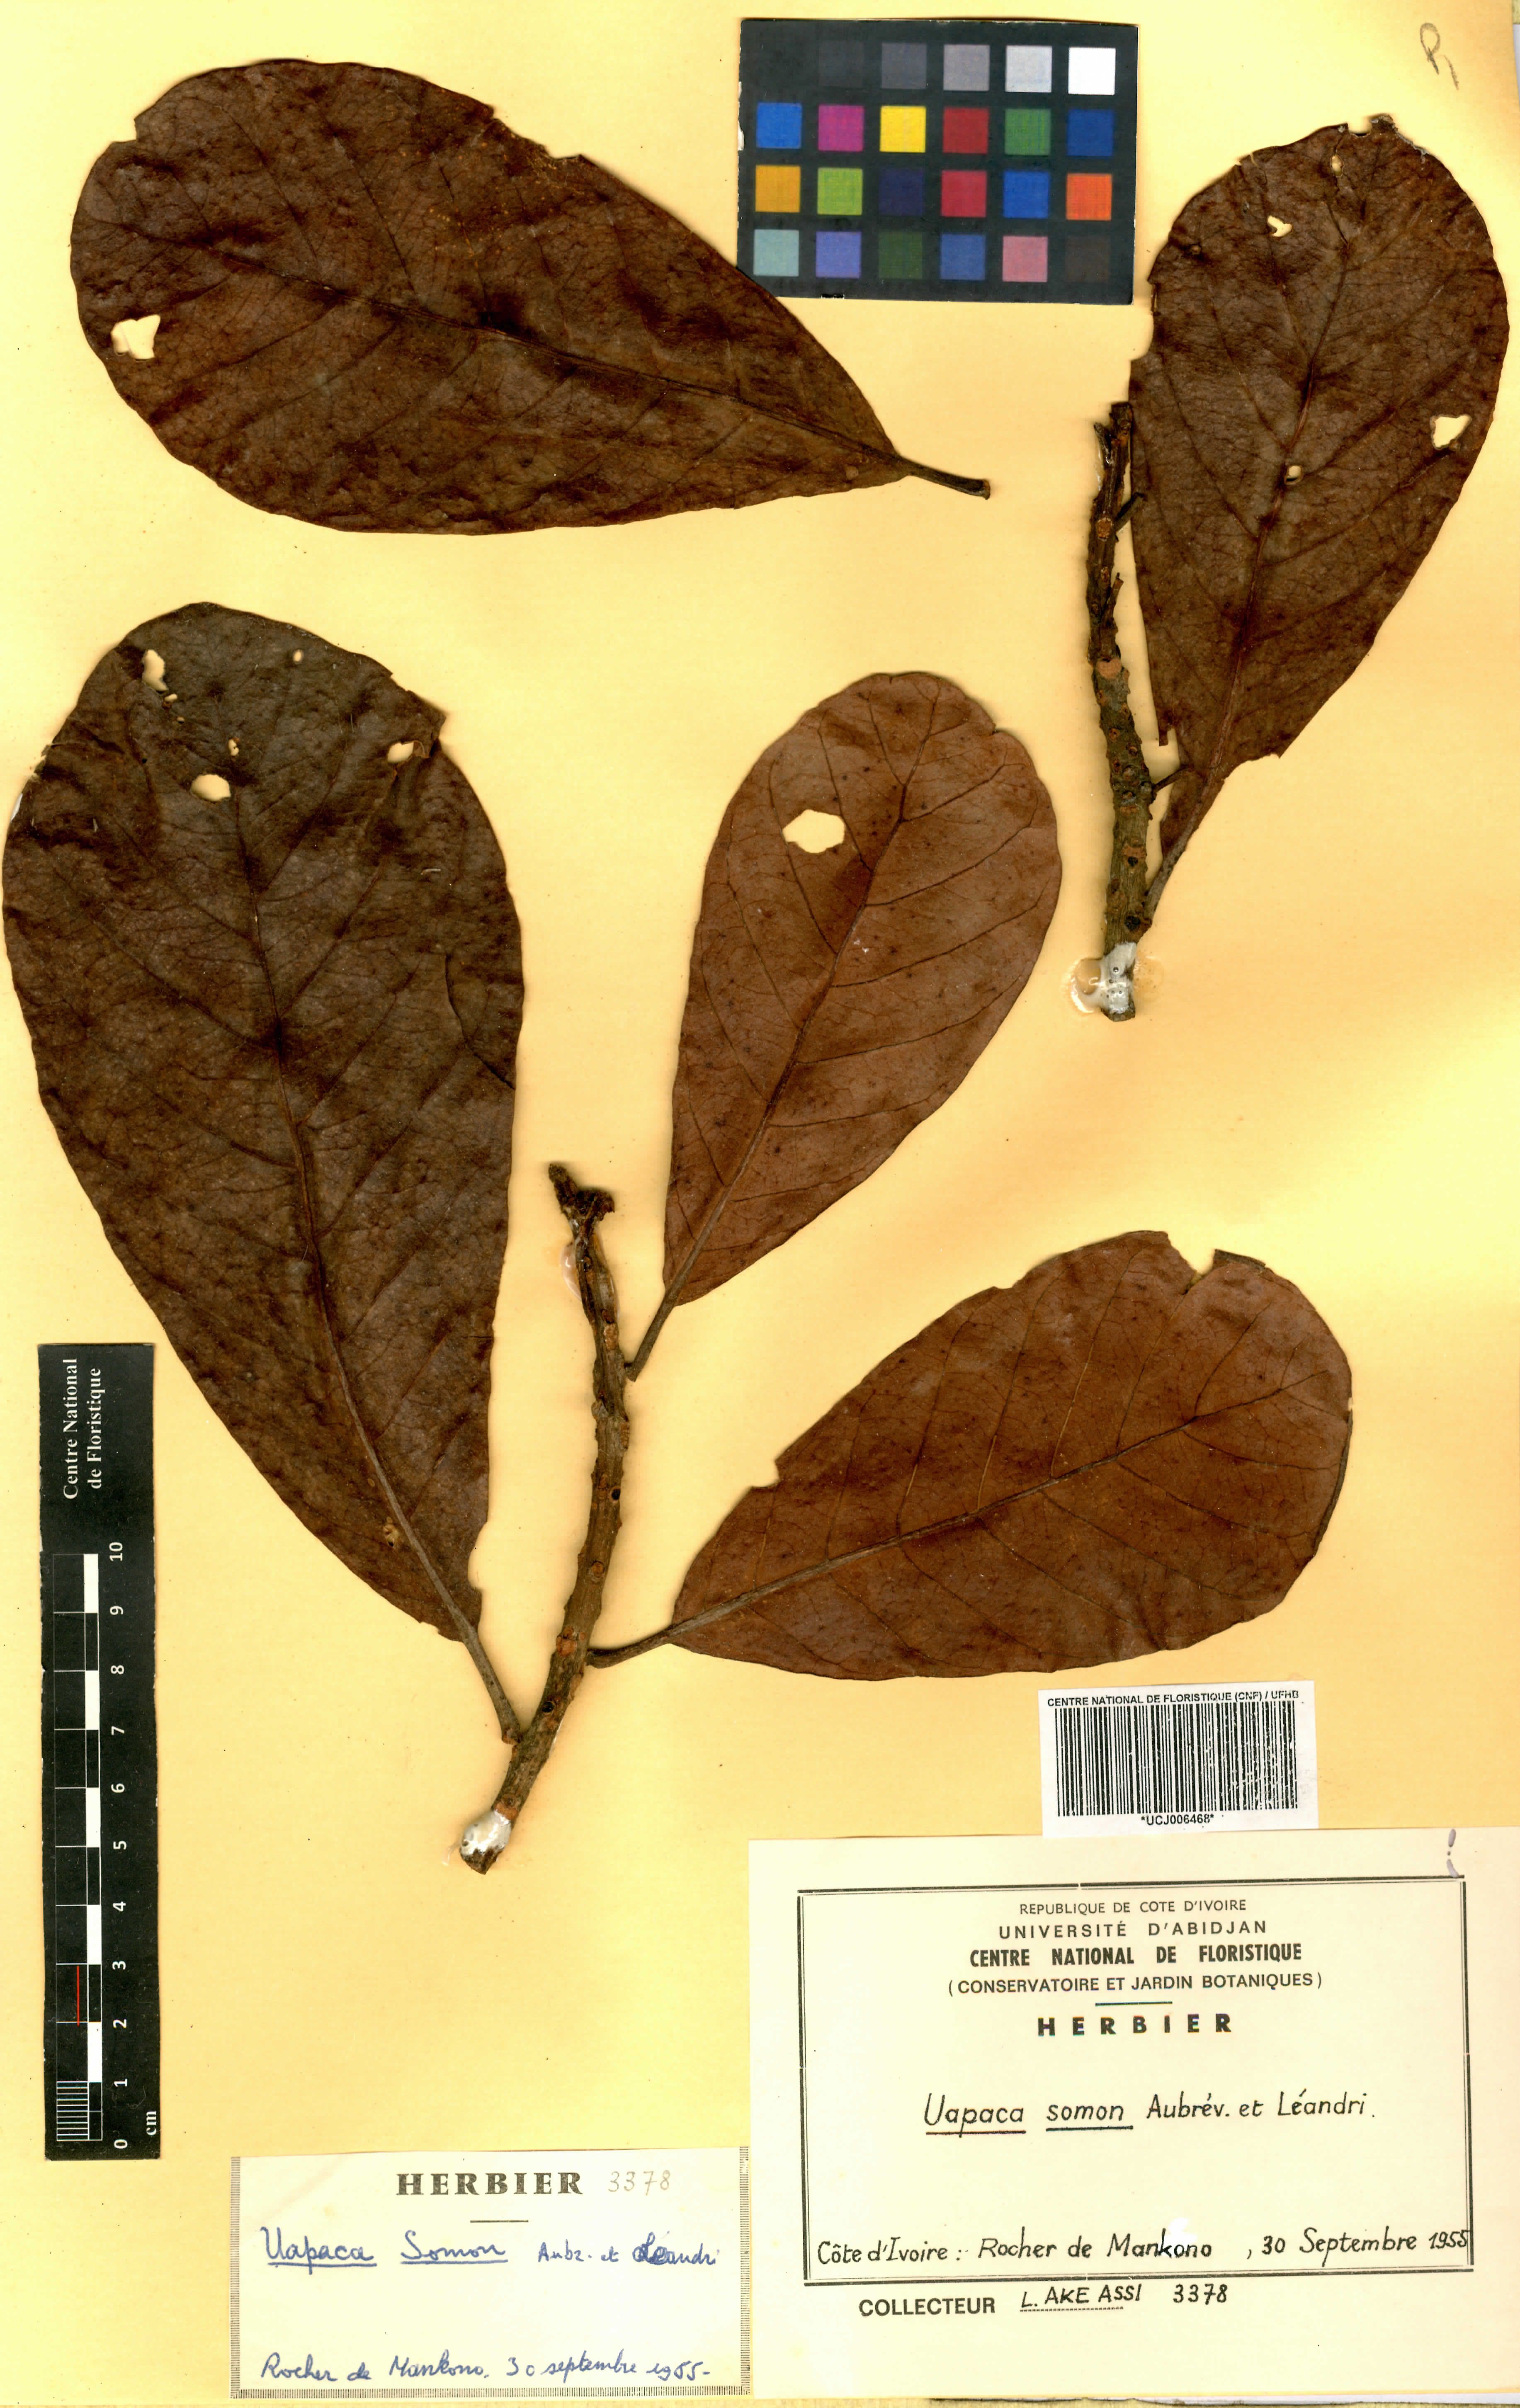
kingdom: Plantae
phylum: Tracheophyta
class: Magnoliopsida
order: Malpighiales
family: Phyllanthaceae
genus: Uapaca
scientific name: Uapaca togoensis
